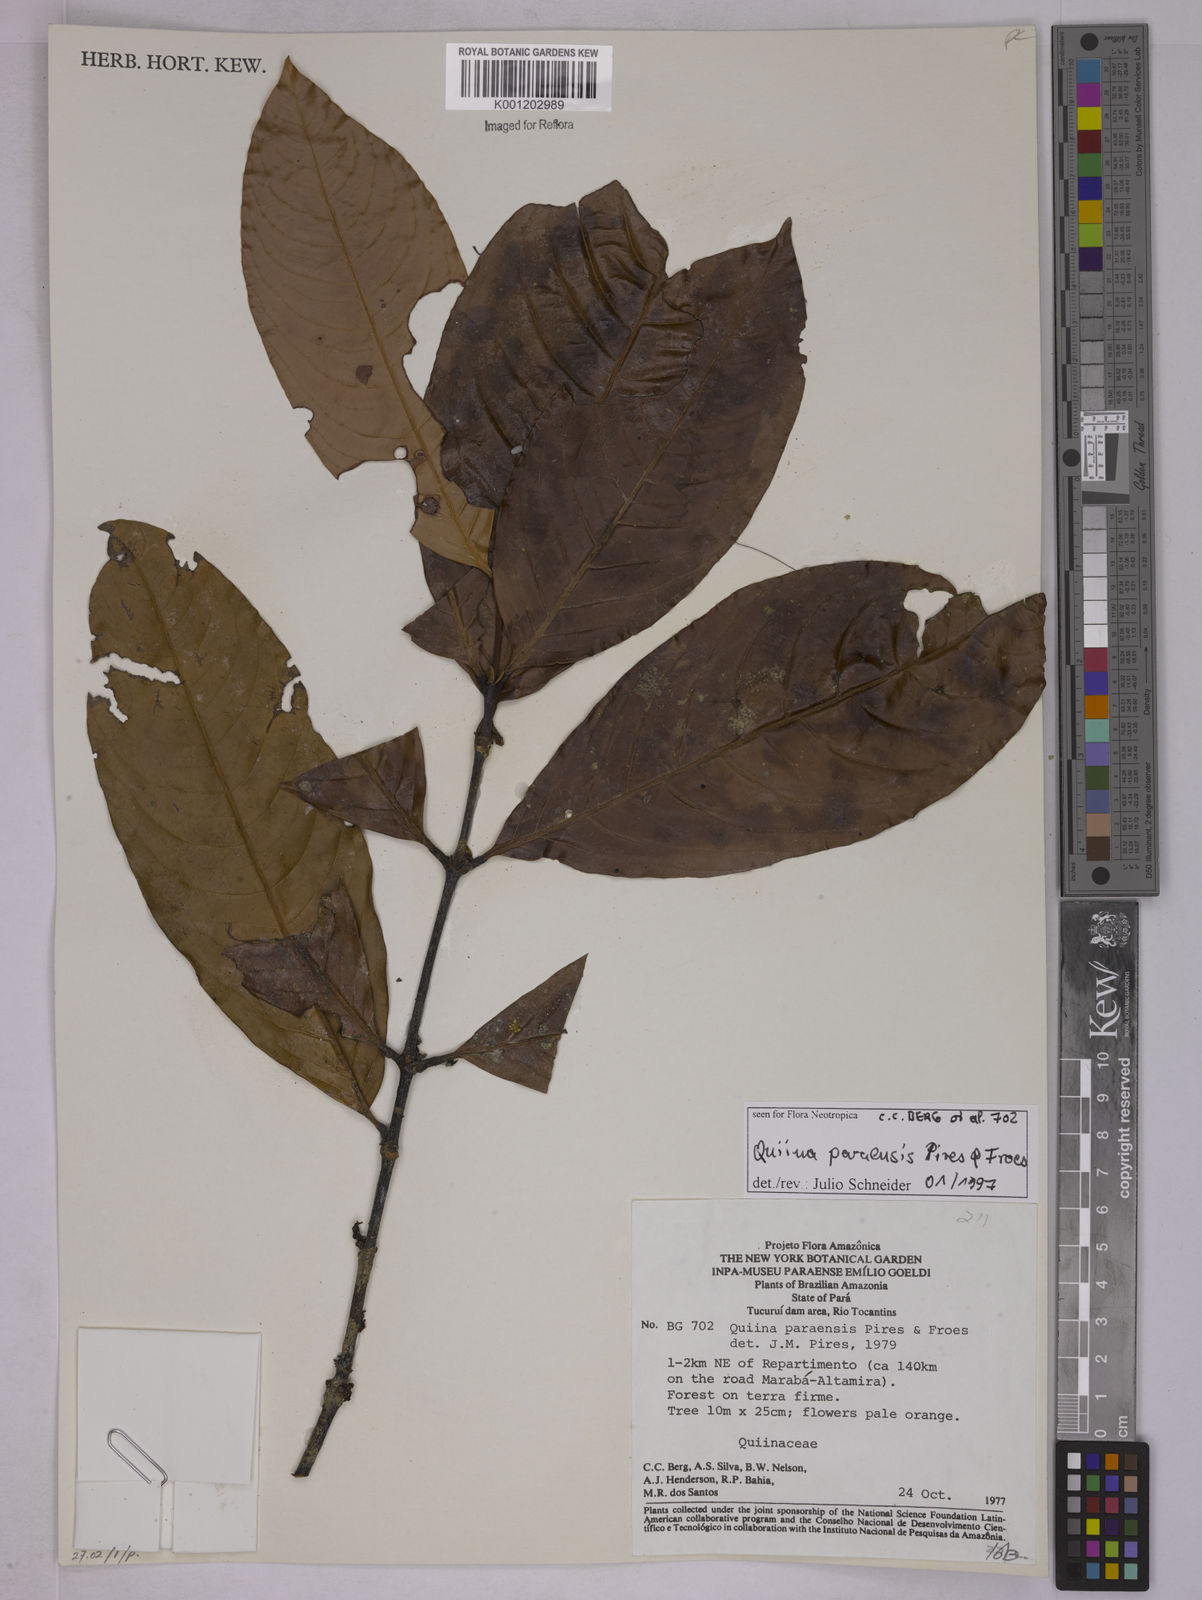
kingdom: Plantae
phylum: Tracheophyta
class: Magnoliopsida
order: Malpighiales
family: Quiinaceae
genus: Quiina
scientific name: Quiina paraensis
